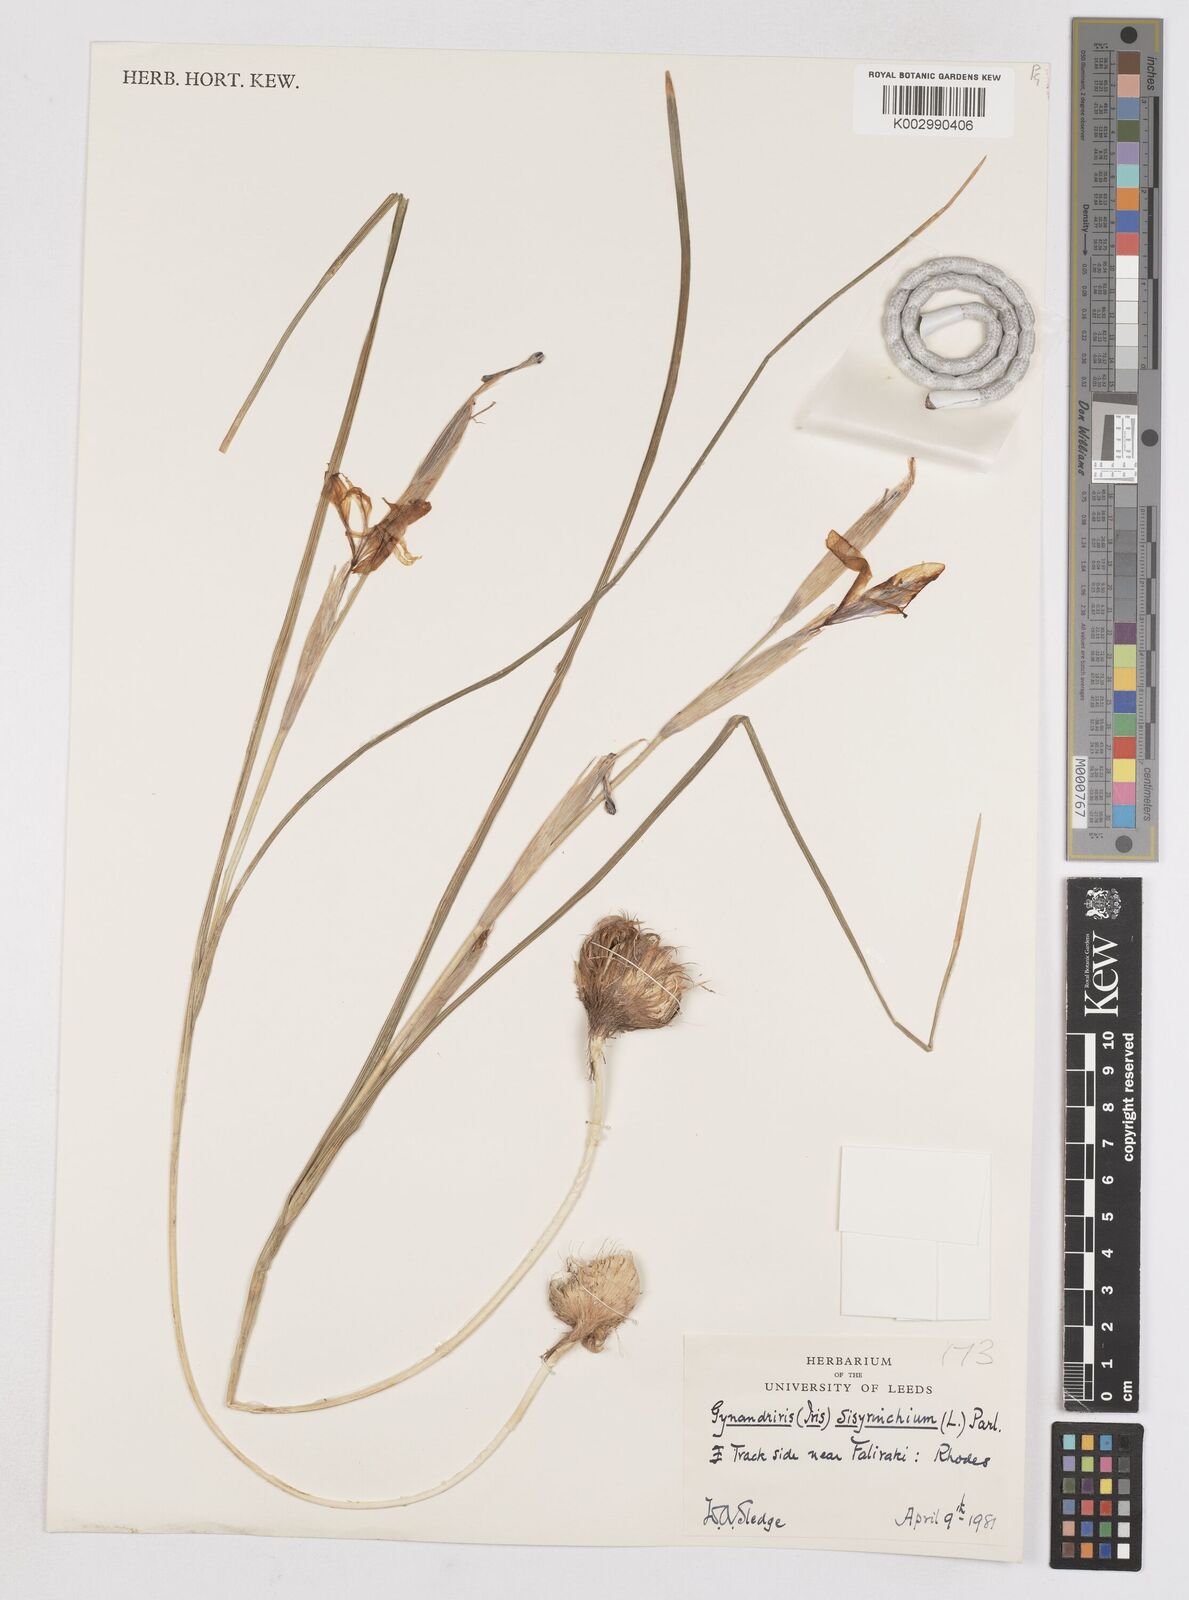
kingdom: Plantae
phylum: Tracheophyta
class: Liliopsida
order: Asparagales
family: Iridaceae
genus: Moraea
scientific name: Moraea sisyrinchium
